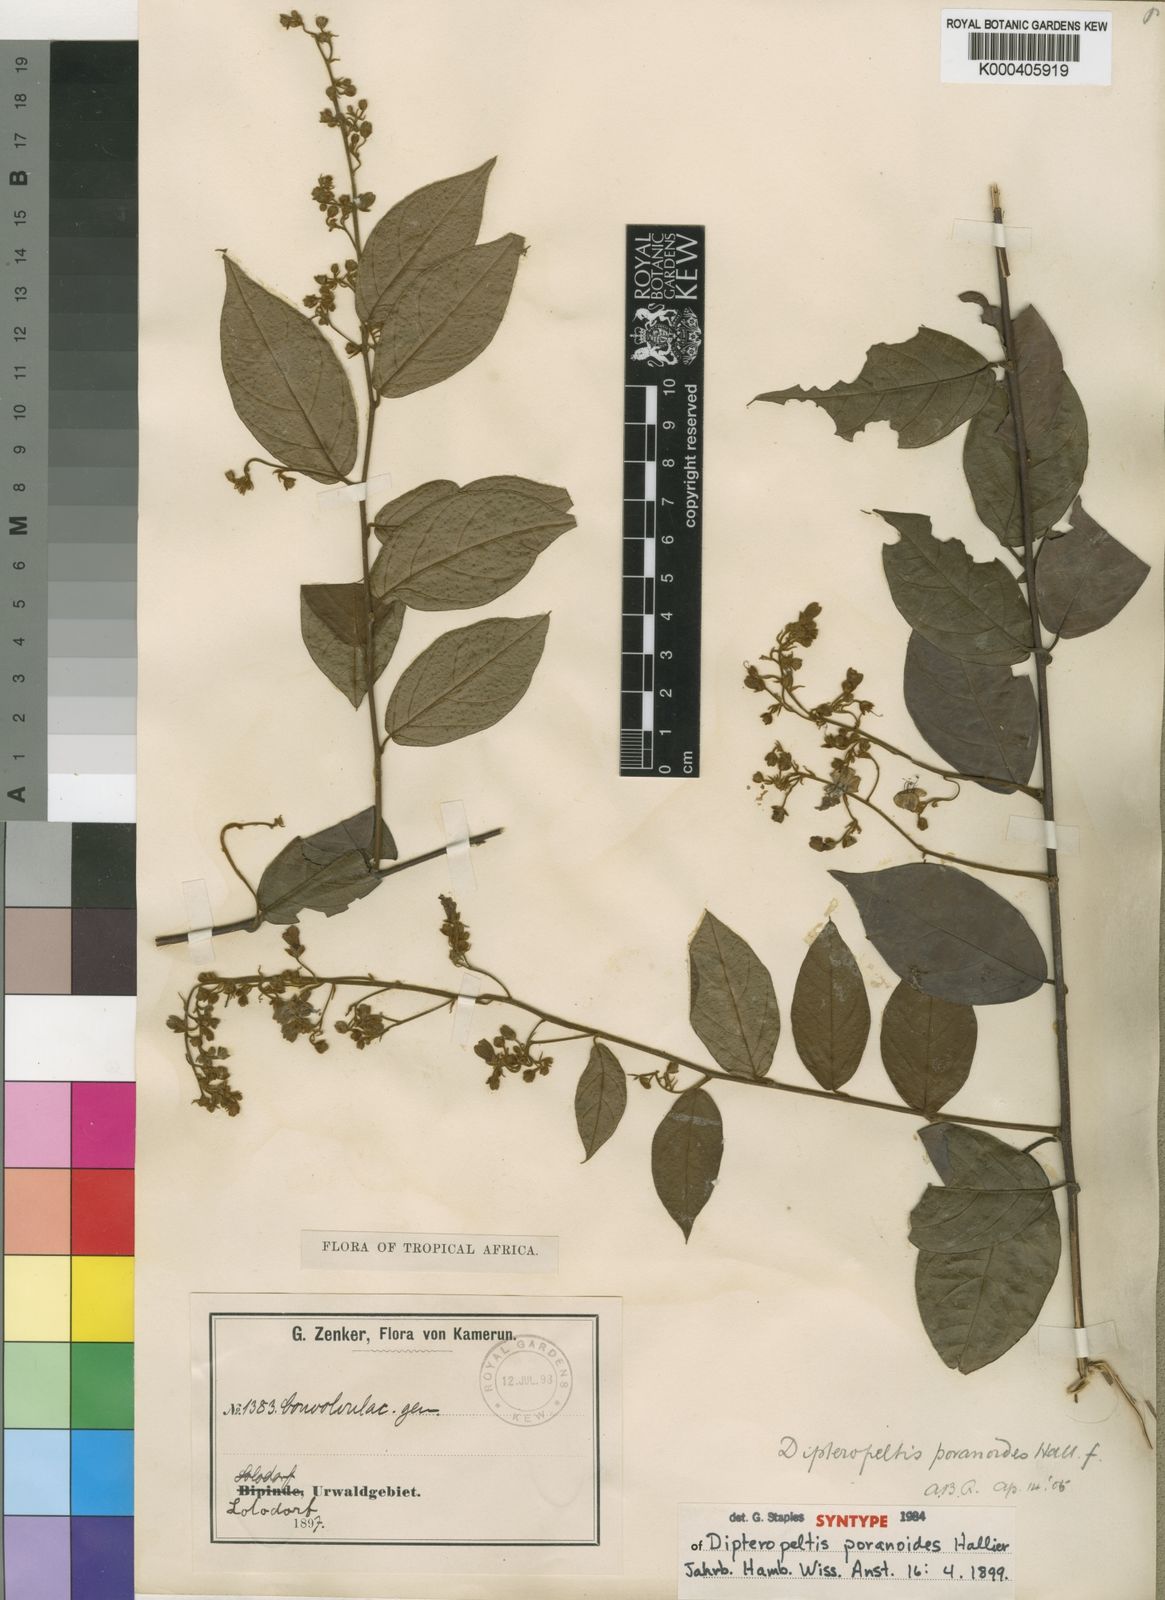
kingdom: Plantae
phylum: Tracheophyta
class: Magnoliopsida
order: Solanales
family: Convolvulaceae
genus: Dipteropeltis
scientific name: Dipteropeltis poranoides
